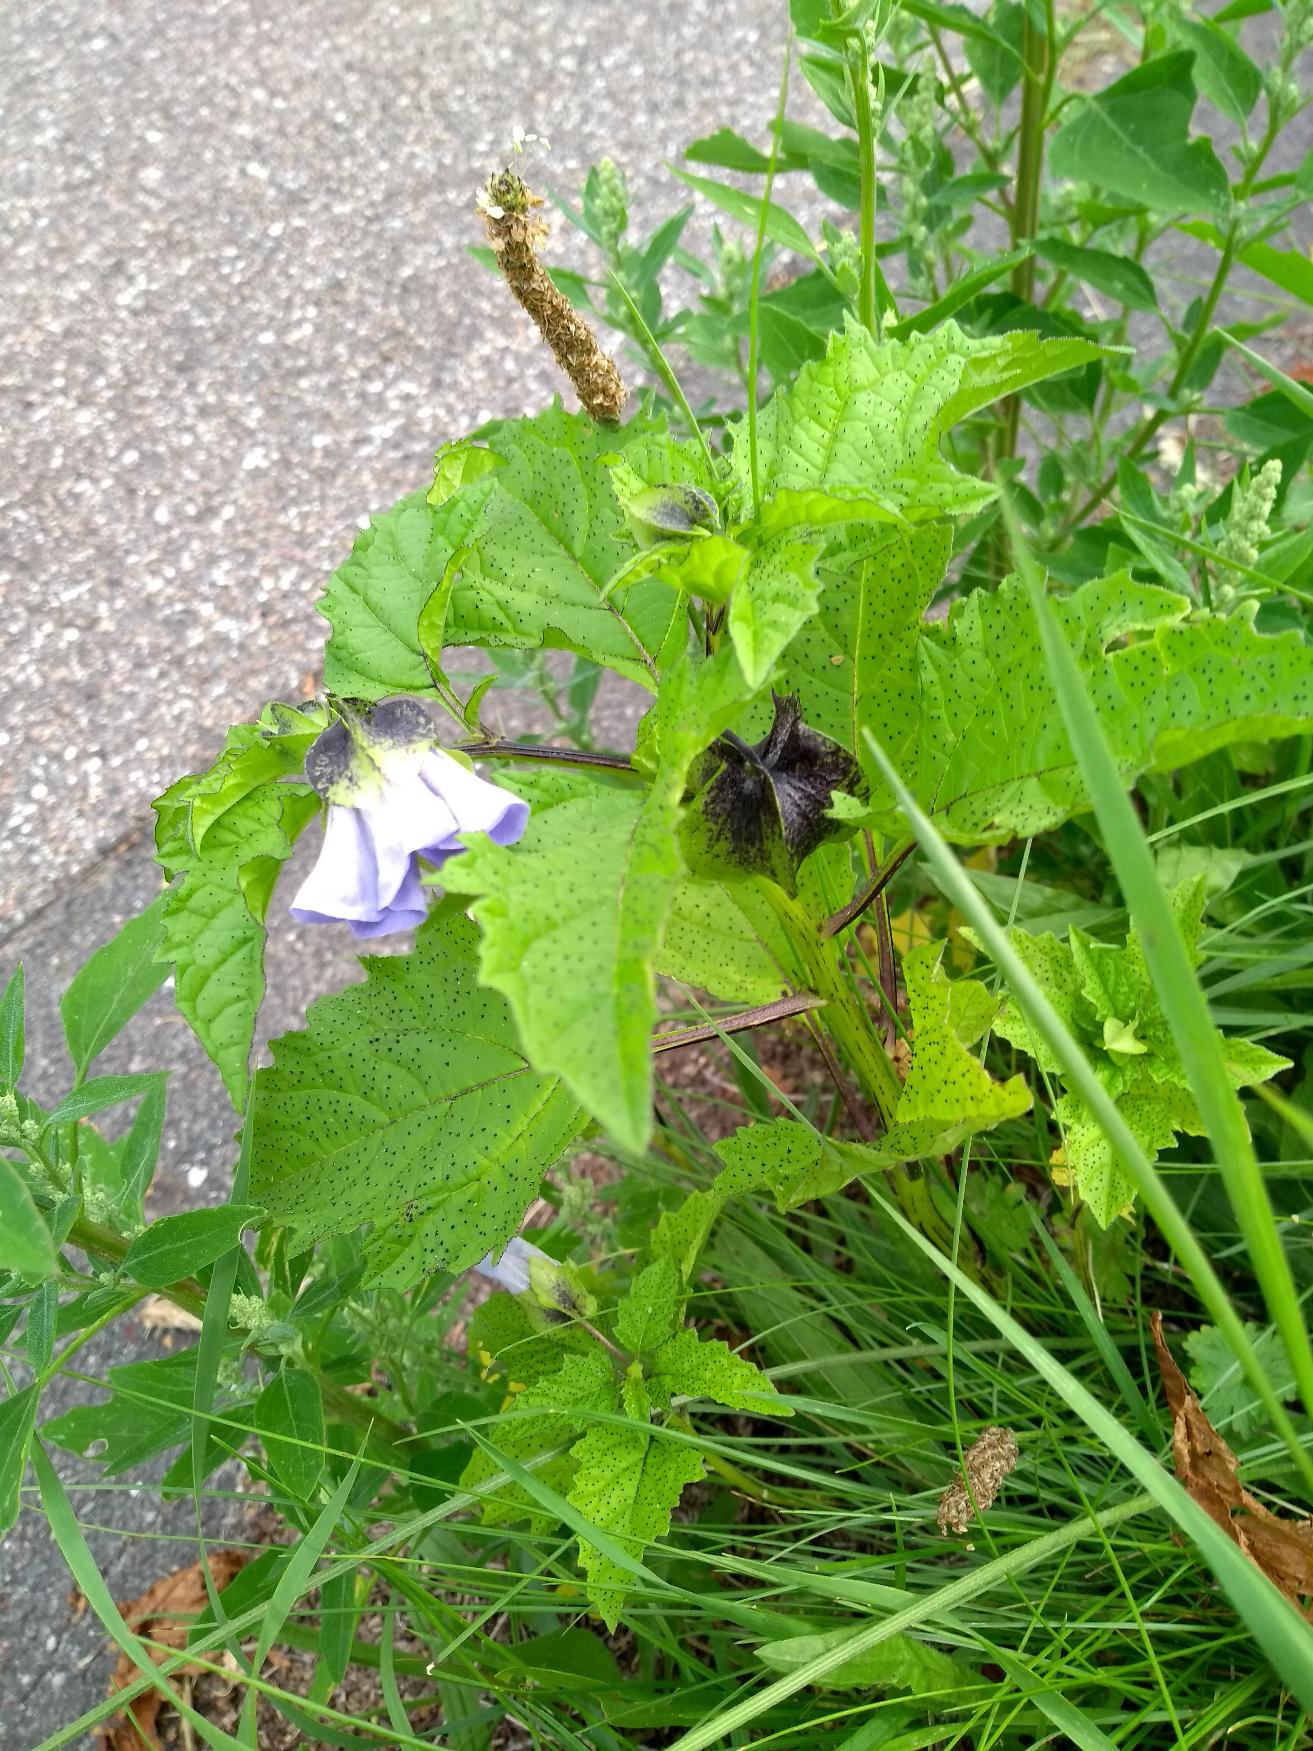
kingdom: Plantae
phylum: Tracheophyta
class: Magnoliopsida
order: Solanales
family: Solanaceae
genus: Nicandra
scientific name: Nicandra physalodes
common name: Kantbæger
